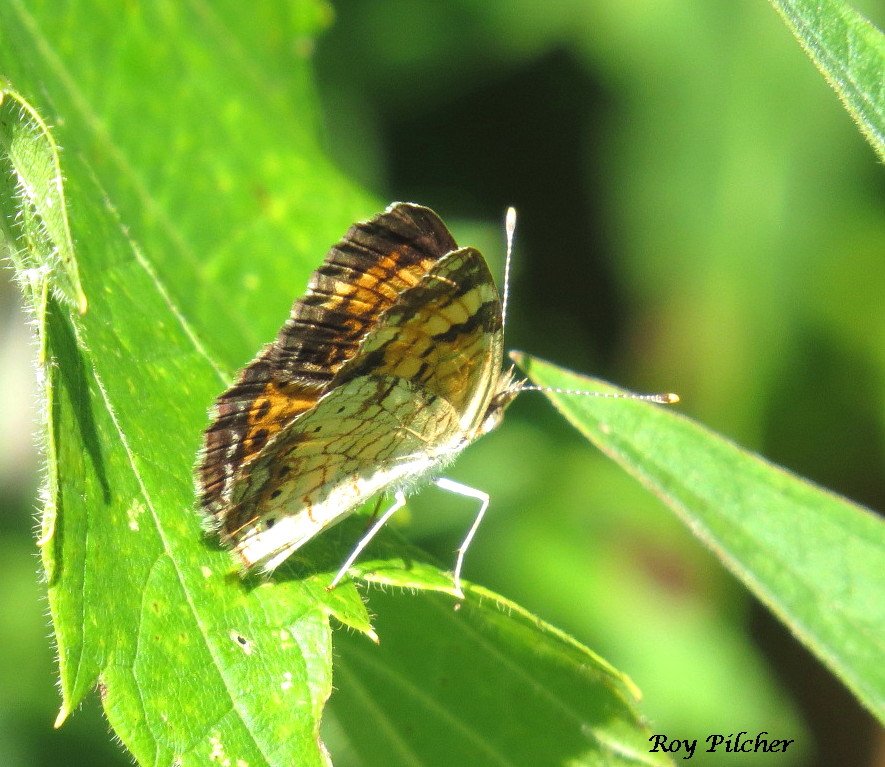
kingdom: Animalia
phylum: Arthropoda
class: Insecta
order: Lepidoptera
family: Nymphalidae
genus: Phyciodes
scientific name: Phyciodes tharos
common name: Pearl Crescent
